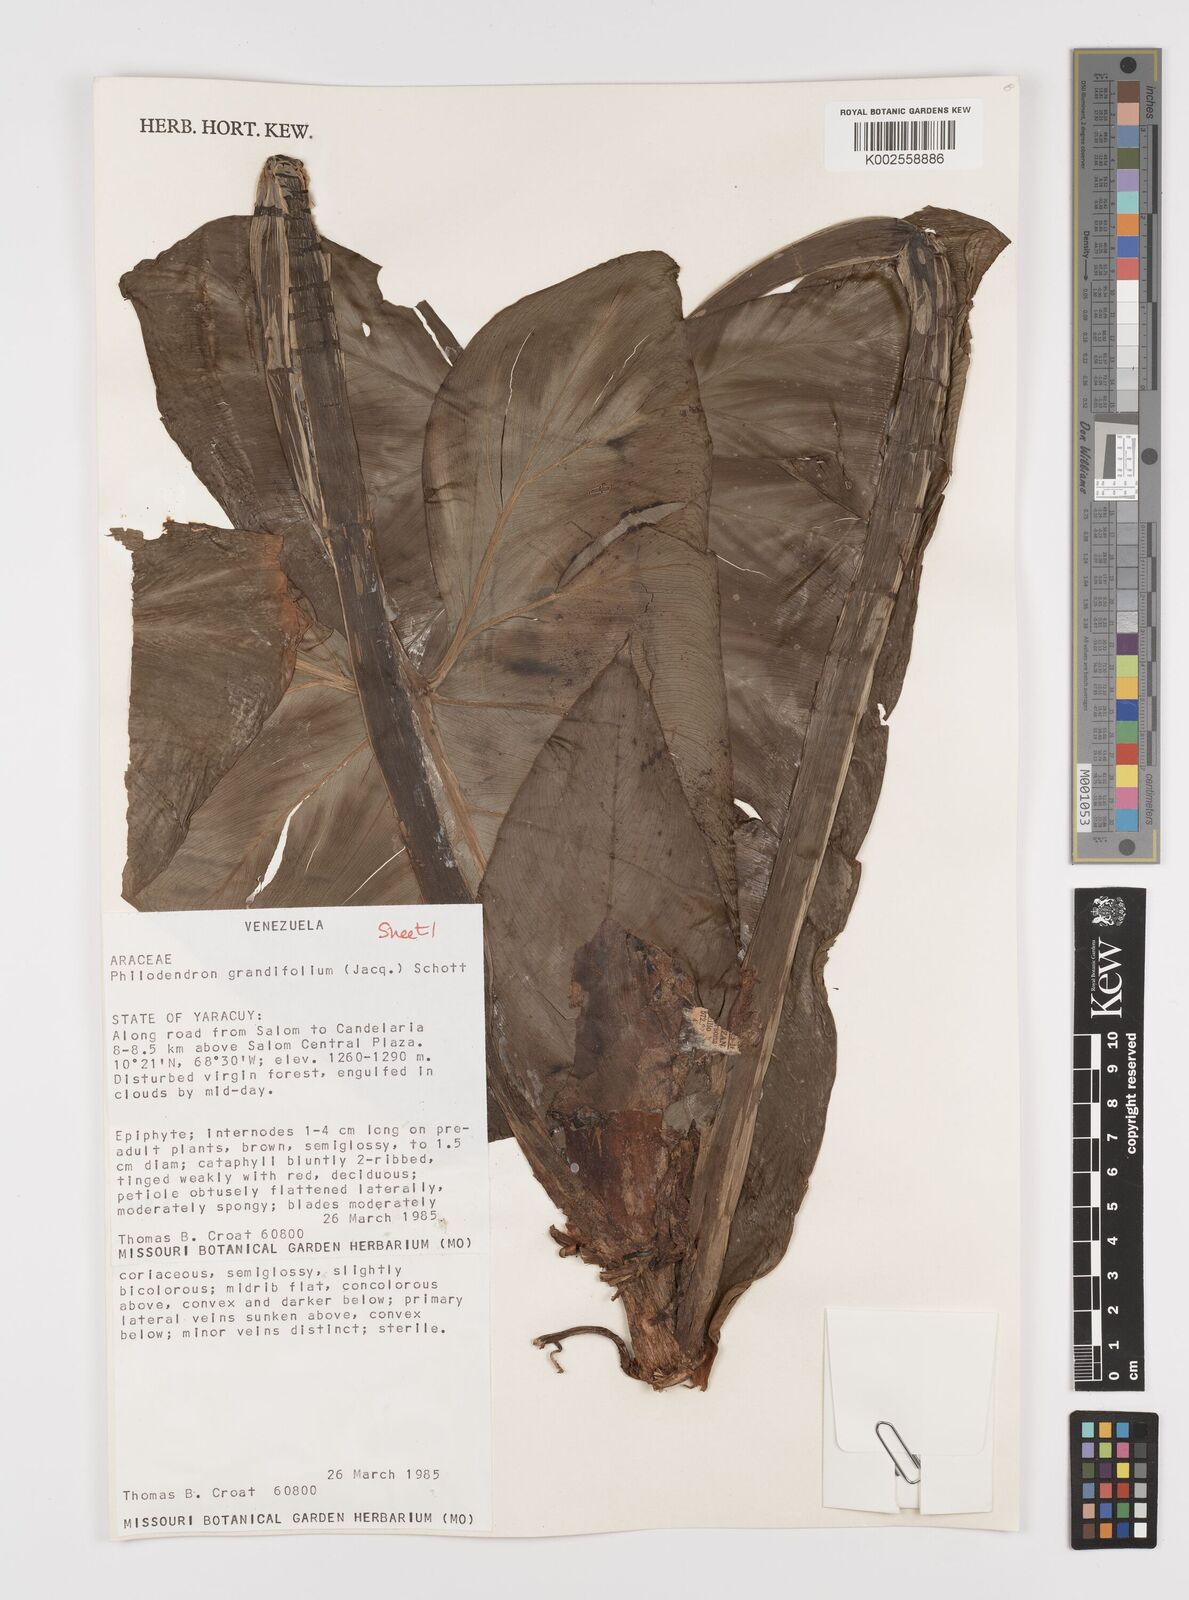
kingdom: Plantae
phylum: Tracheophyta
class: Liliopsida
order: Alismatales
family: Araceae
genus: Philodendron
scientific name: Philodendron grandifolium
